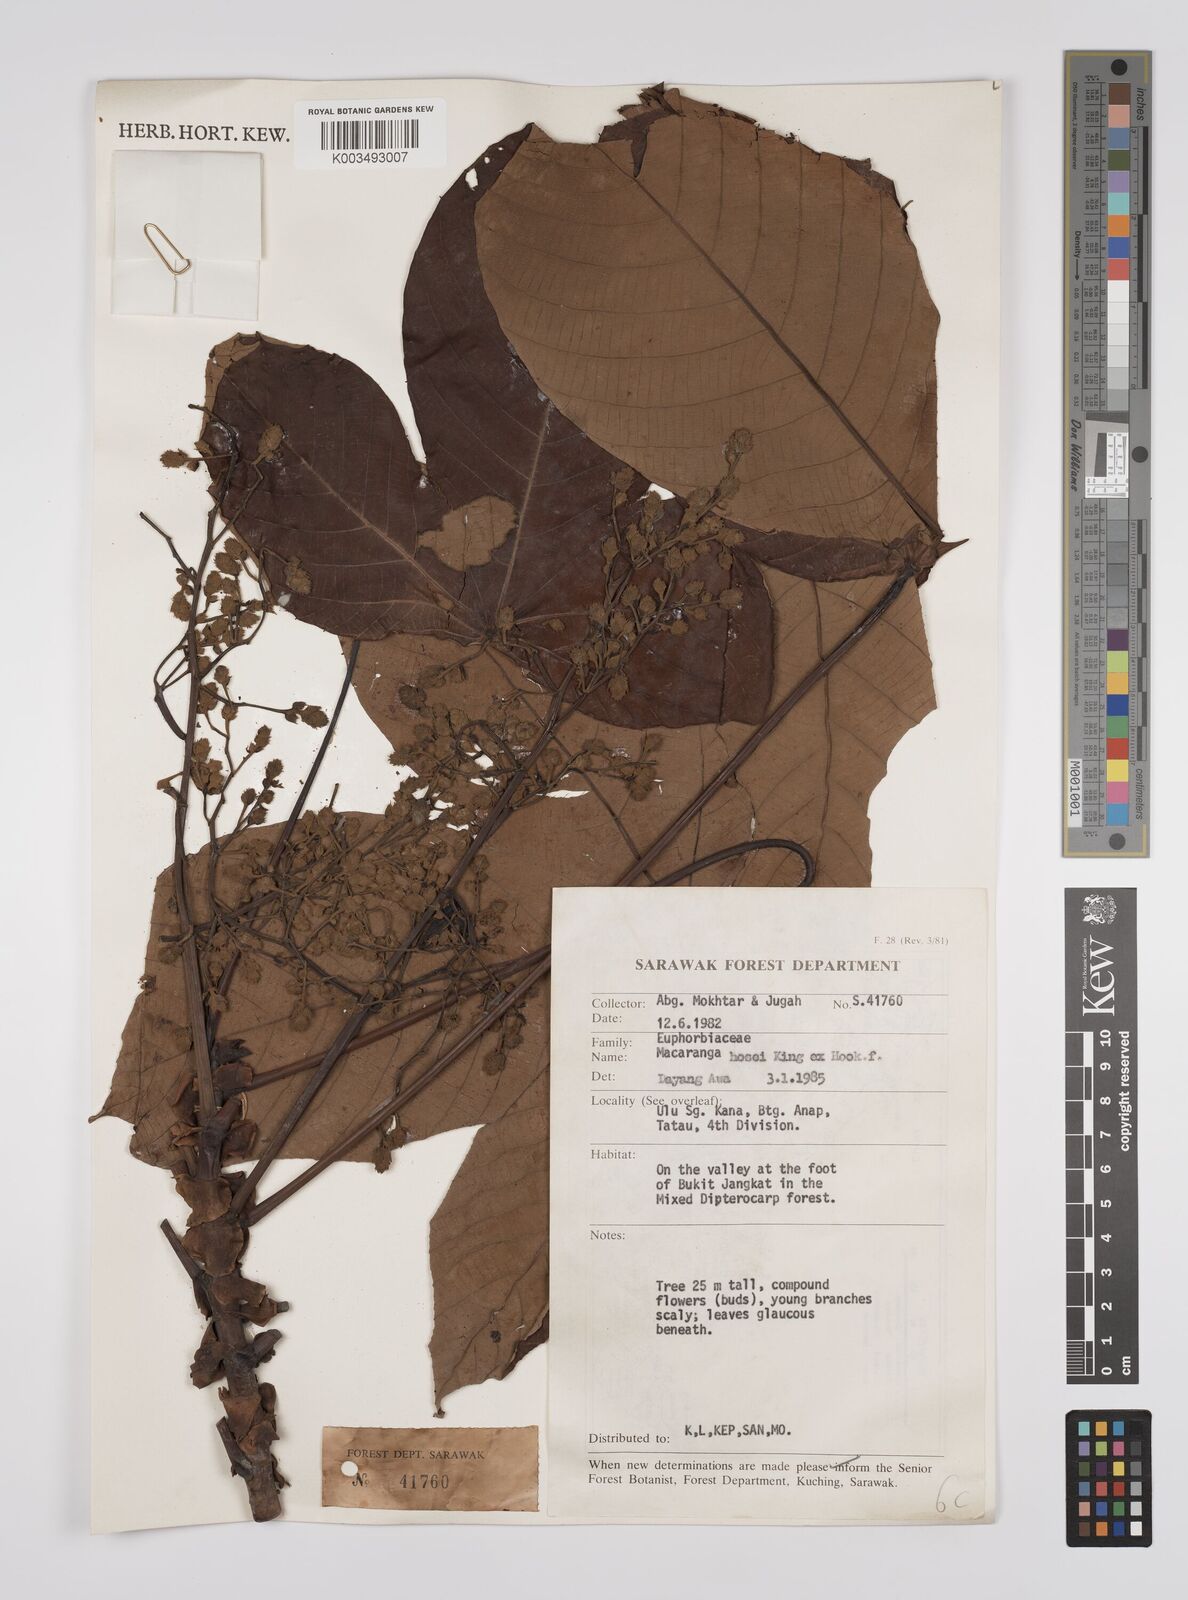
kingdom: Plantae
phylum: Tracheophyta
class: Magnoliopsida
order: Malpighiales
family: Euphorbiaceae
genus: Macaranga
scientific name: Macaranga hosei
